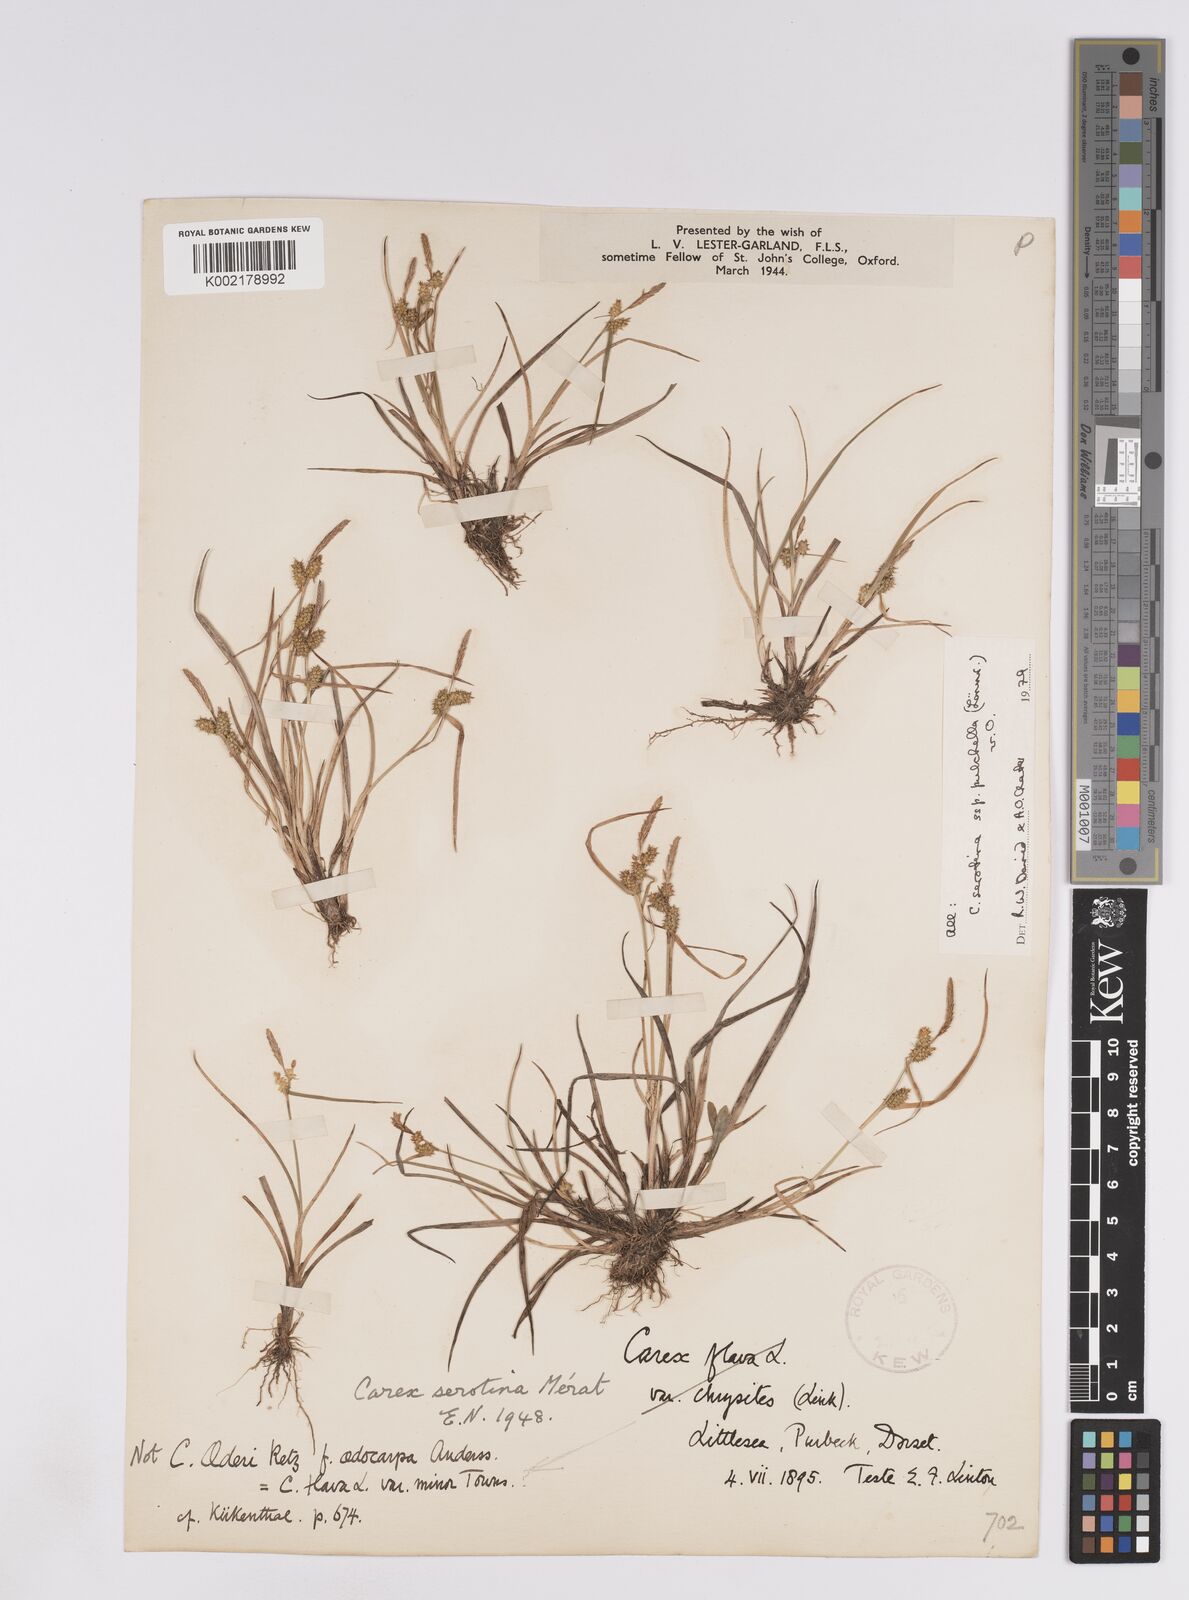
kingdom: Plantae
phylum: Tracheophyta
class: Liliopsida
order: Poales
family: Cyperaceae
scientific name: Cyperaceae
